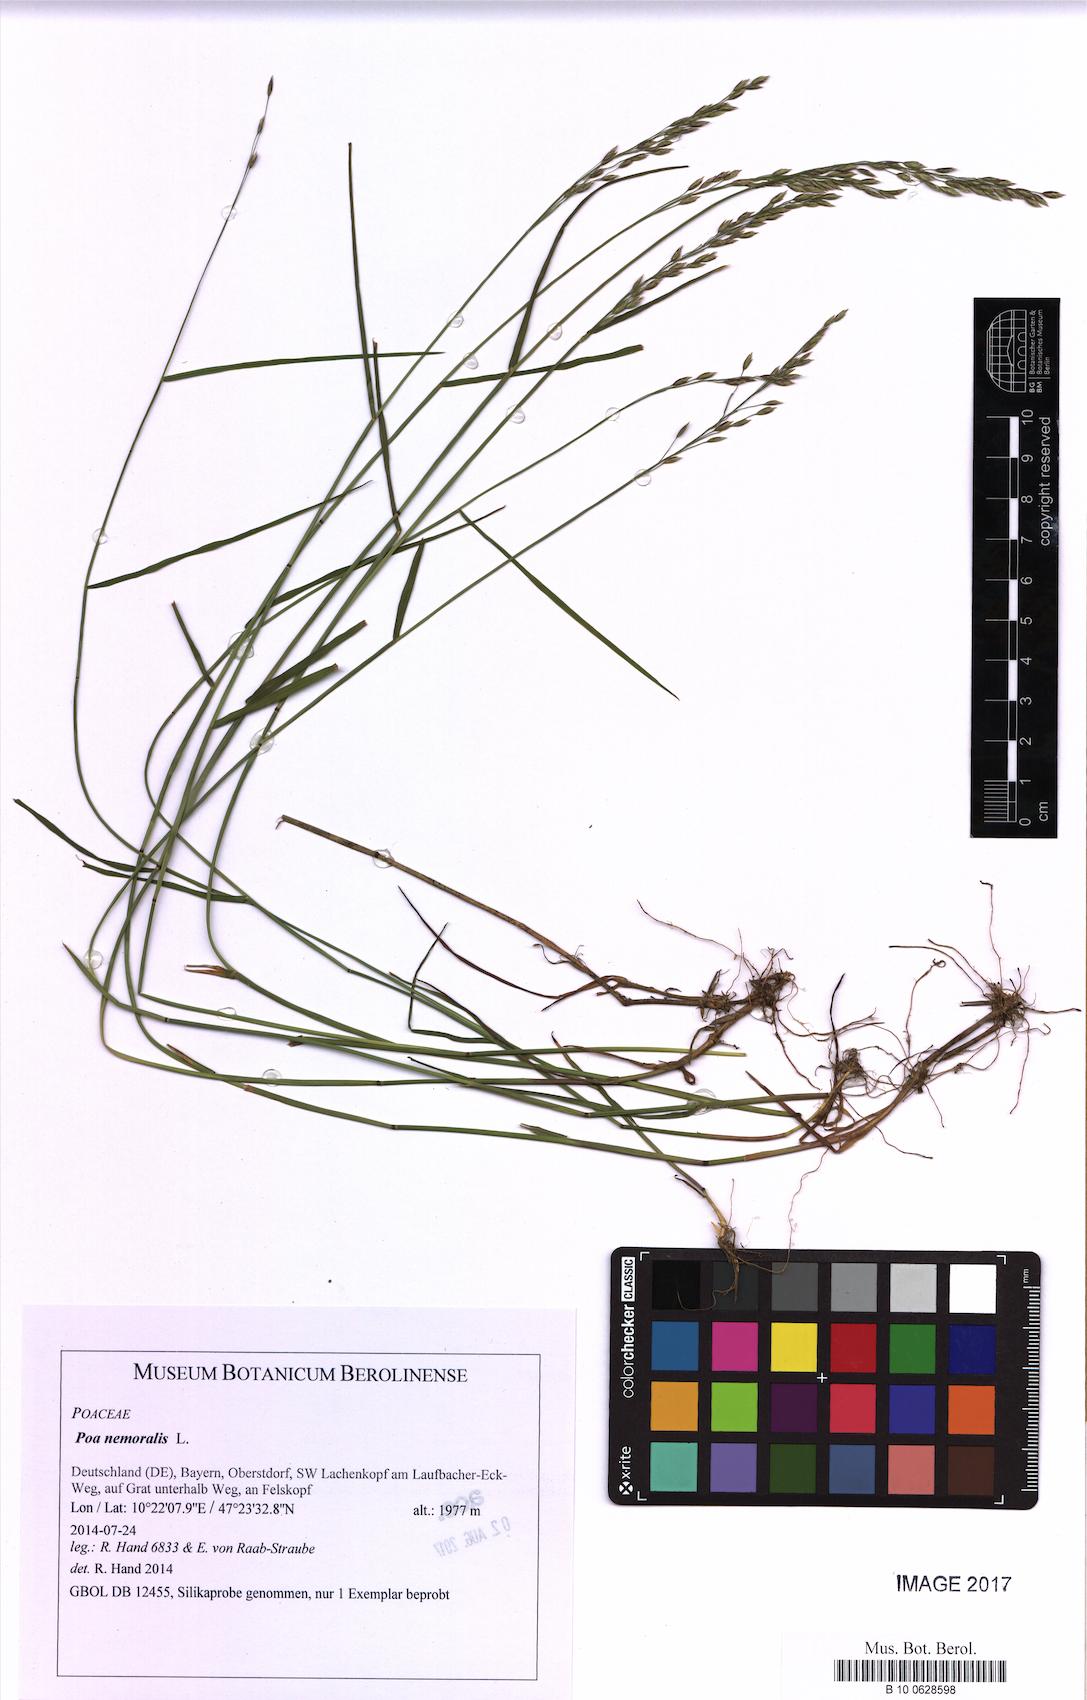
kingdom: Plantae
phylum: Tracheophyta
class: Liliopsida
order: Poales
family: Poaceae
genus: Poa
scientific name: Poa nemoralis
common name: Wood bluegrass
